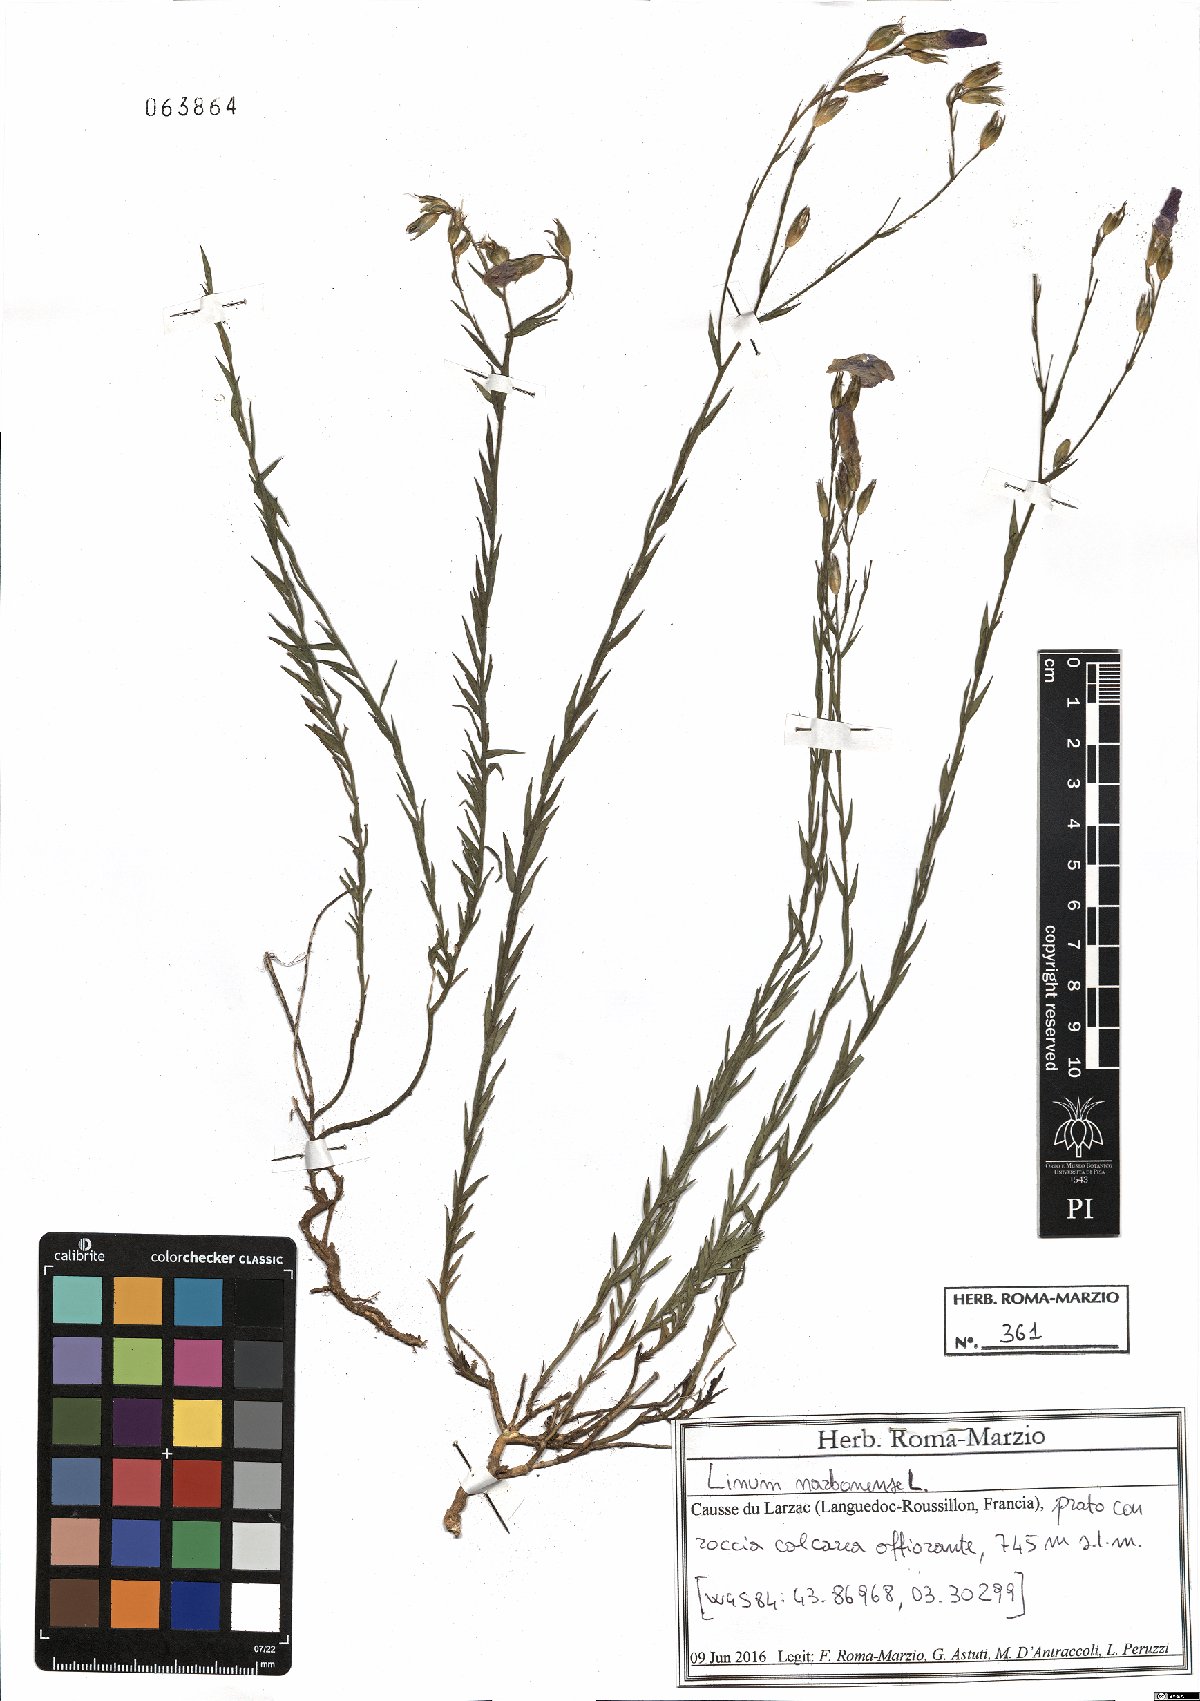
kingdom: Plantae
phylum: Tracheophyta
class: Magnoliopsida
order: Malpighiales
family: Linaceae
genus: Linum
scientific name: Linum narbonense
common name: Flax
